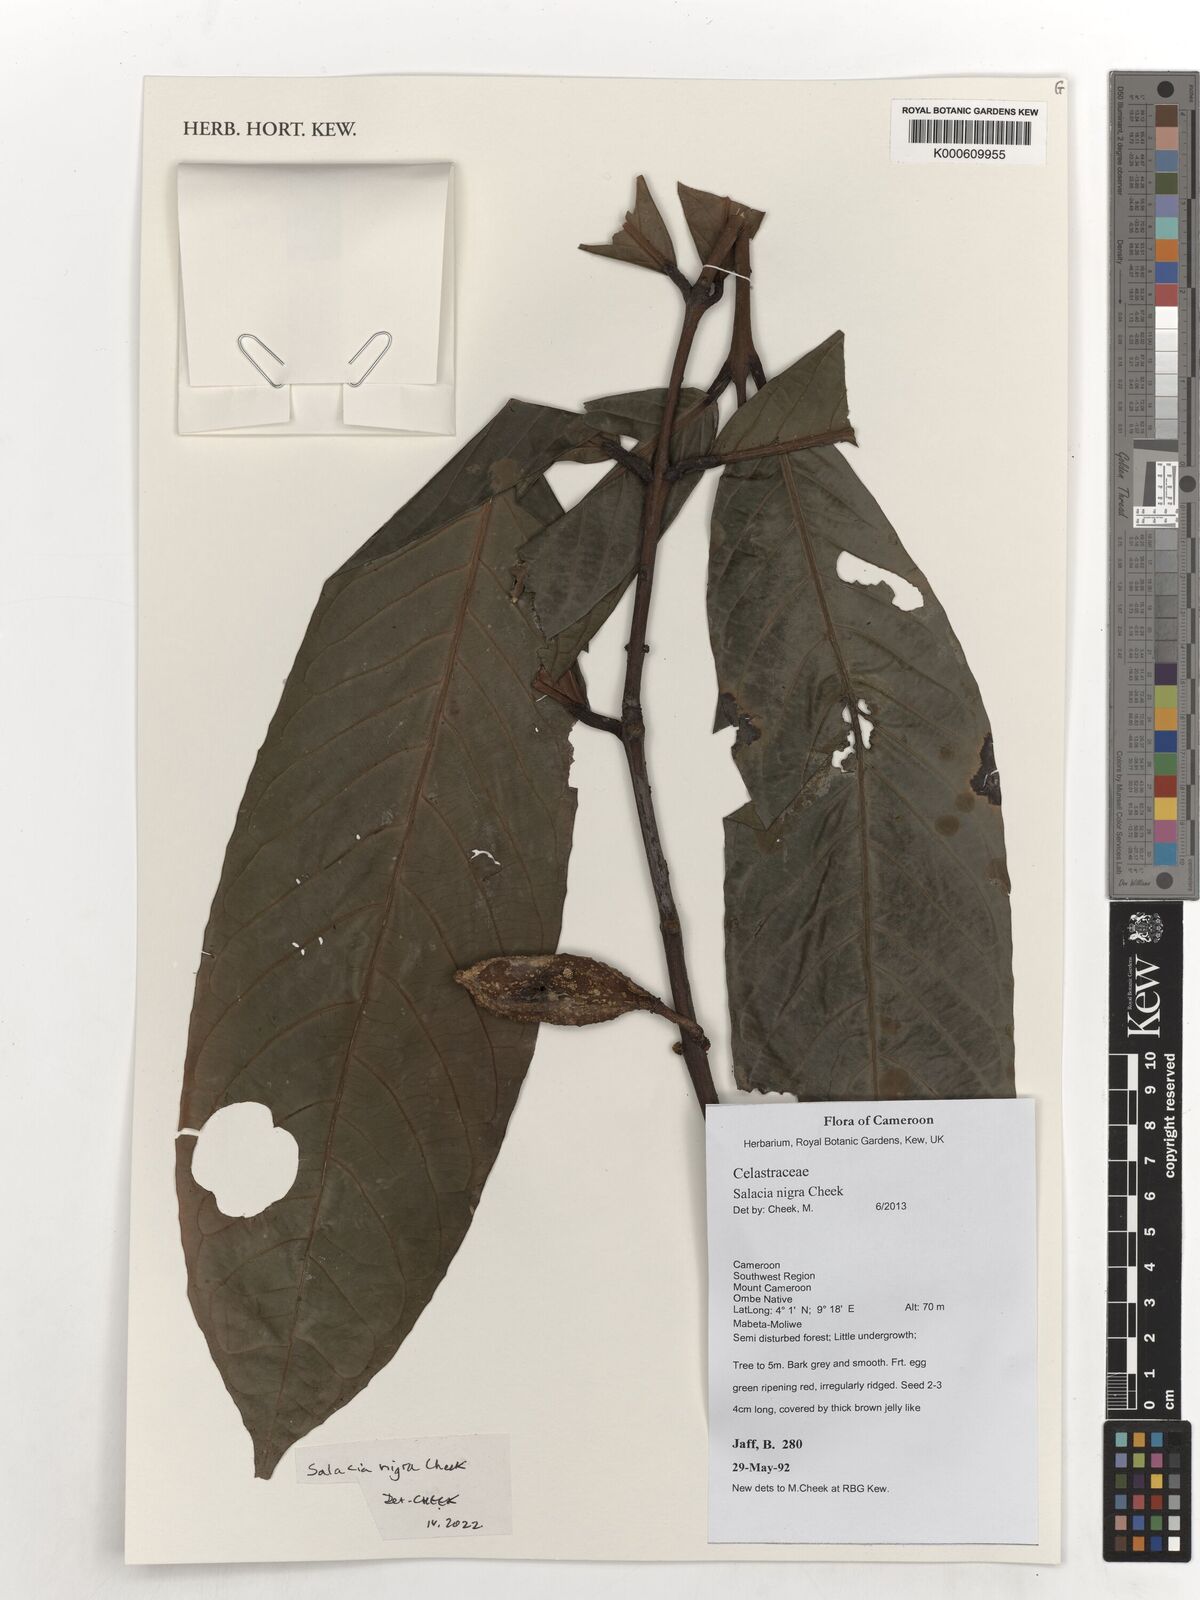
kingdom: Plantae
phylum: Tracheophyta
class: Magnoliopsida
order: Celastrales
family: Celastraceae
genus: Salacia
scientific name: Salacia nigra
